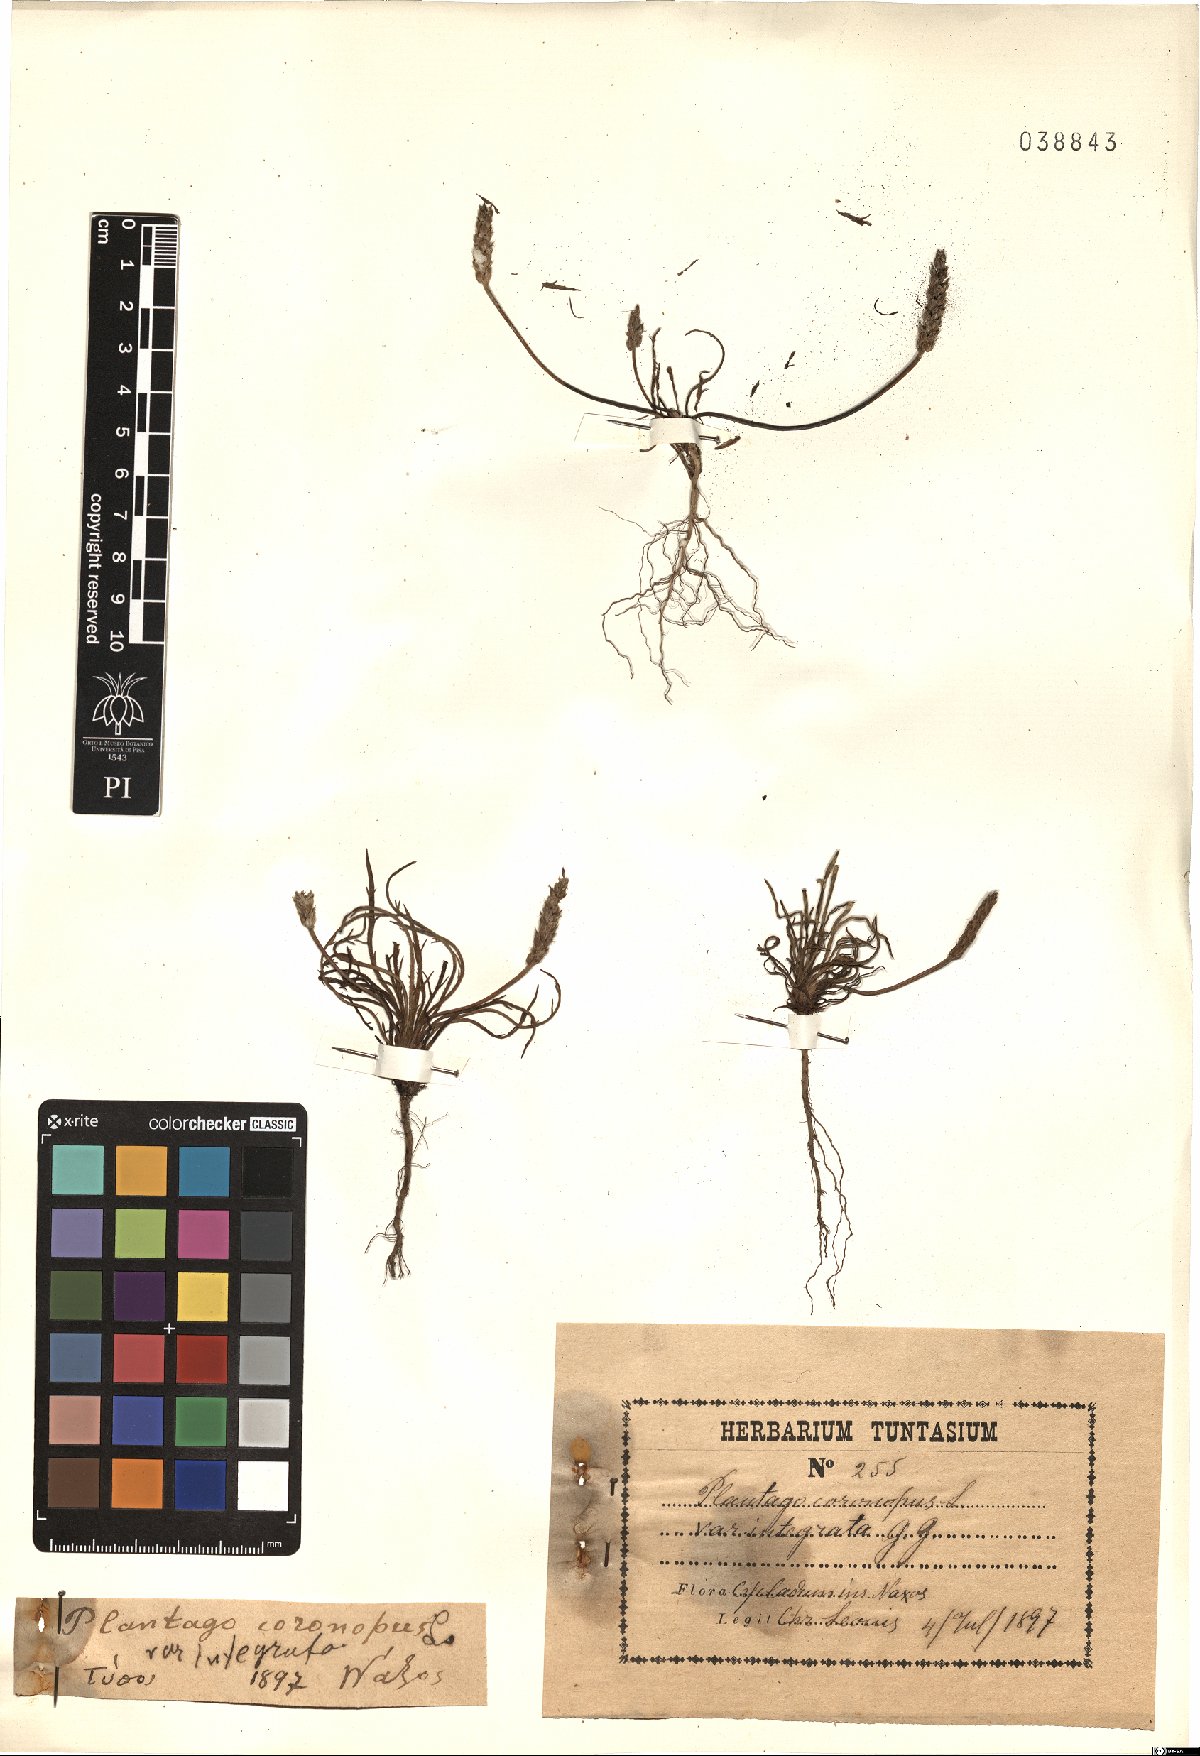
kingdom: Plantae
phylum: Tracheophyta
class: Magnoliopsida
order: Lamiales
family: Plantaginaceae
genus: Plantago
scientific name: Plantago coronopus
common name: Buck's-horn plantain
